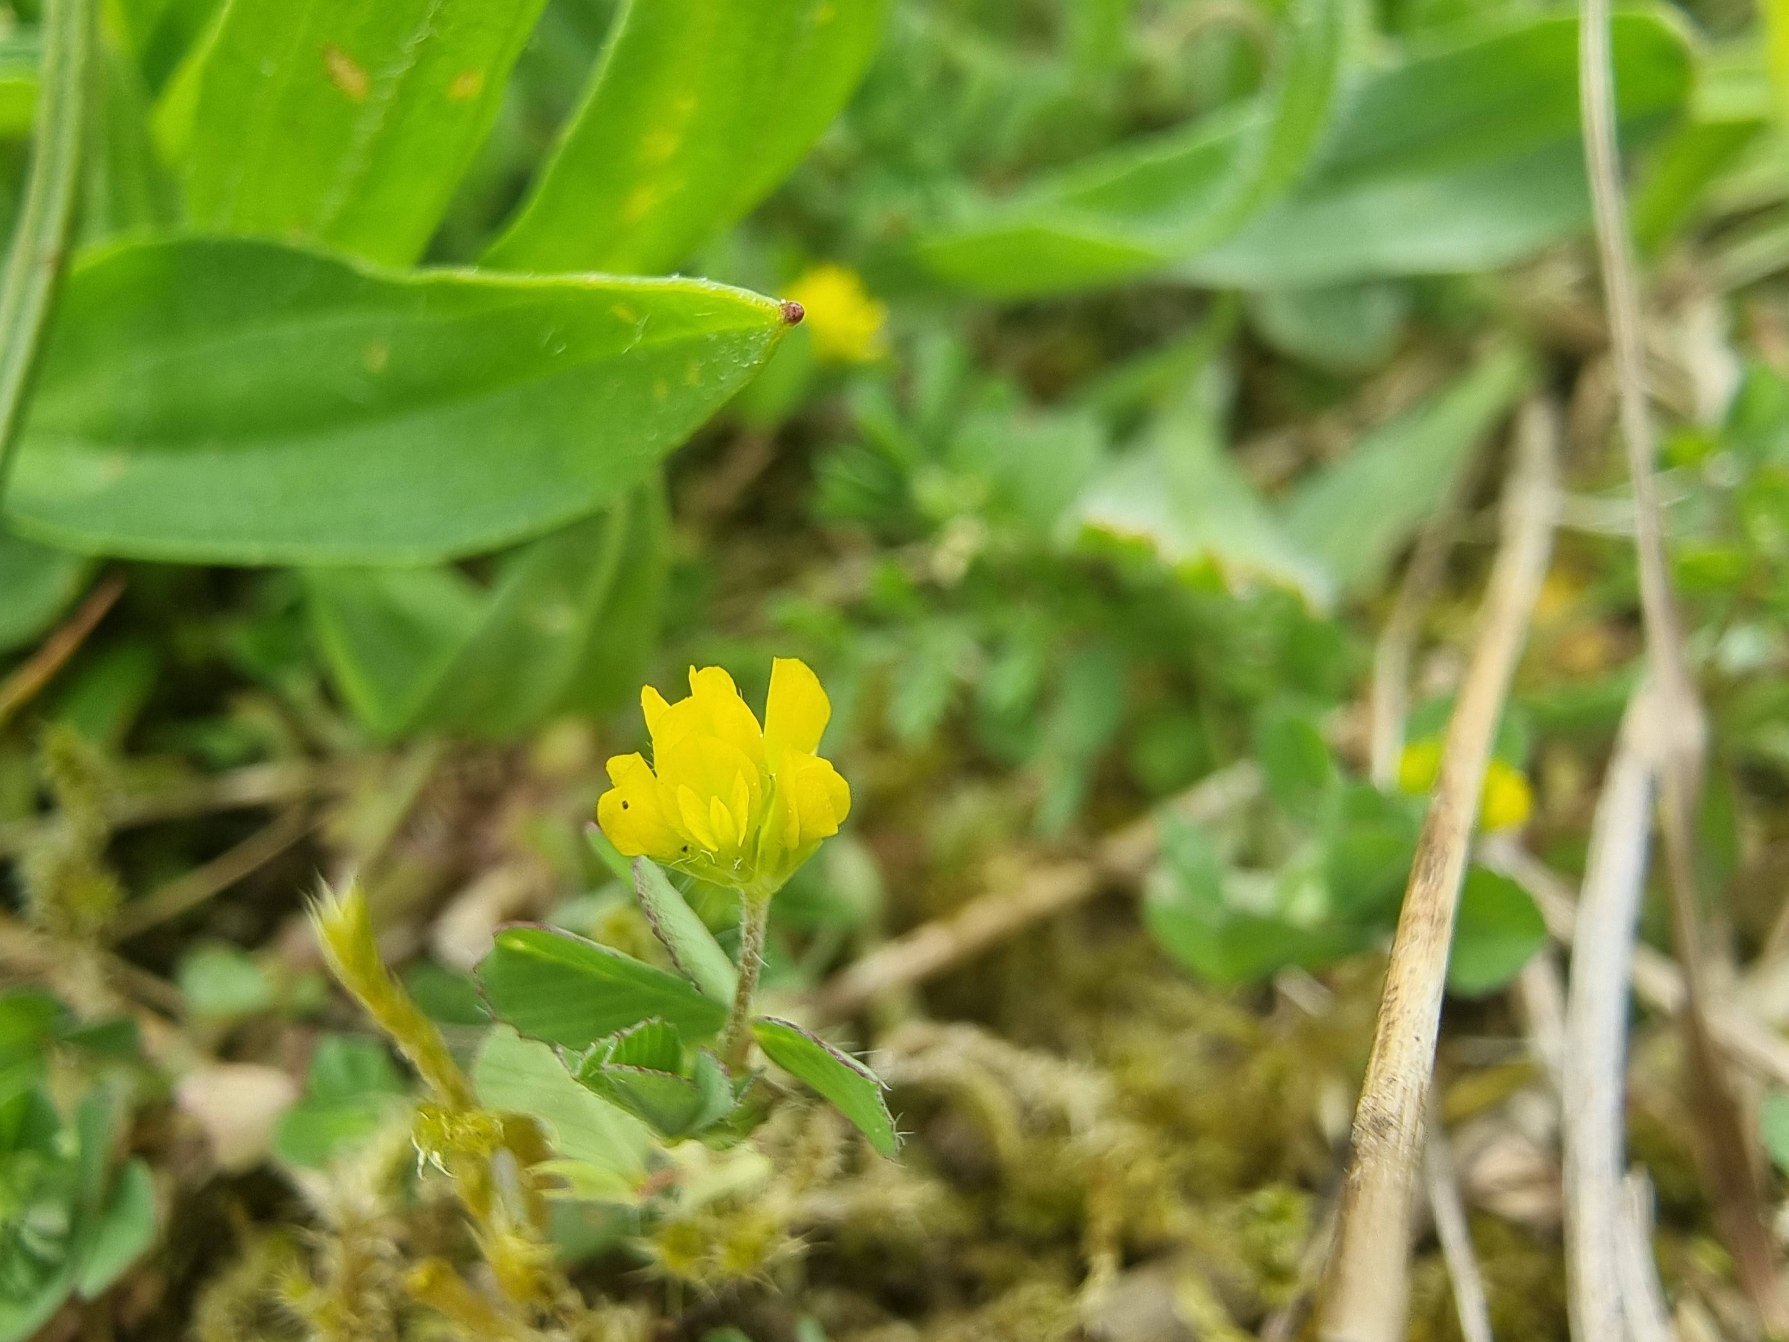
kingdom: Plantae
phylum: Tracheophyta
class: Magnoliopsida
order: Fabales
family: Fabaceae
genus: Trifolium
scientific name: Trifolium dubium
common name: Fin kløver
